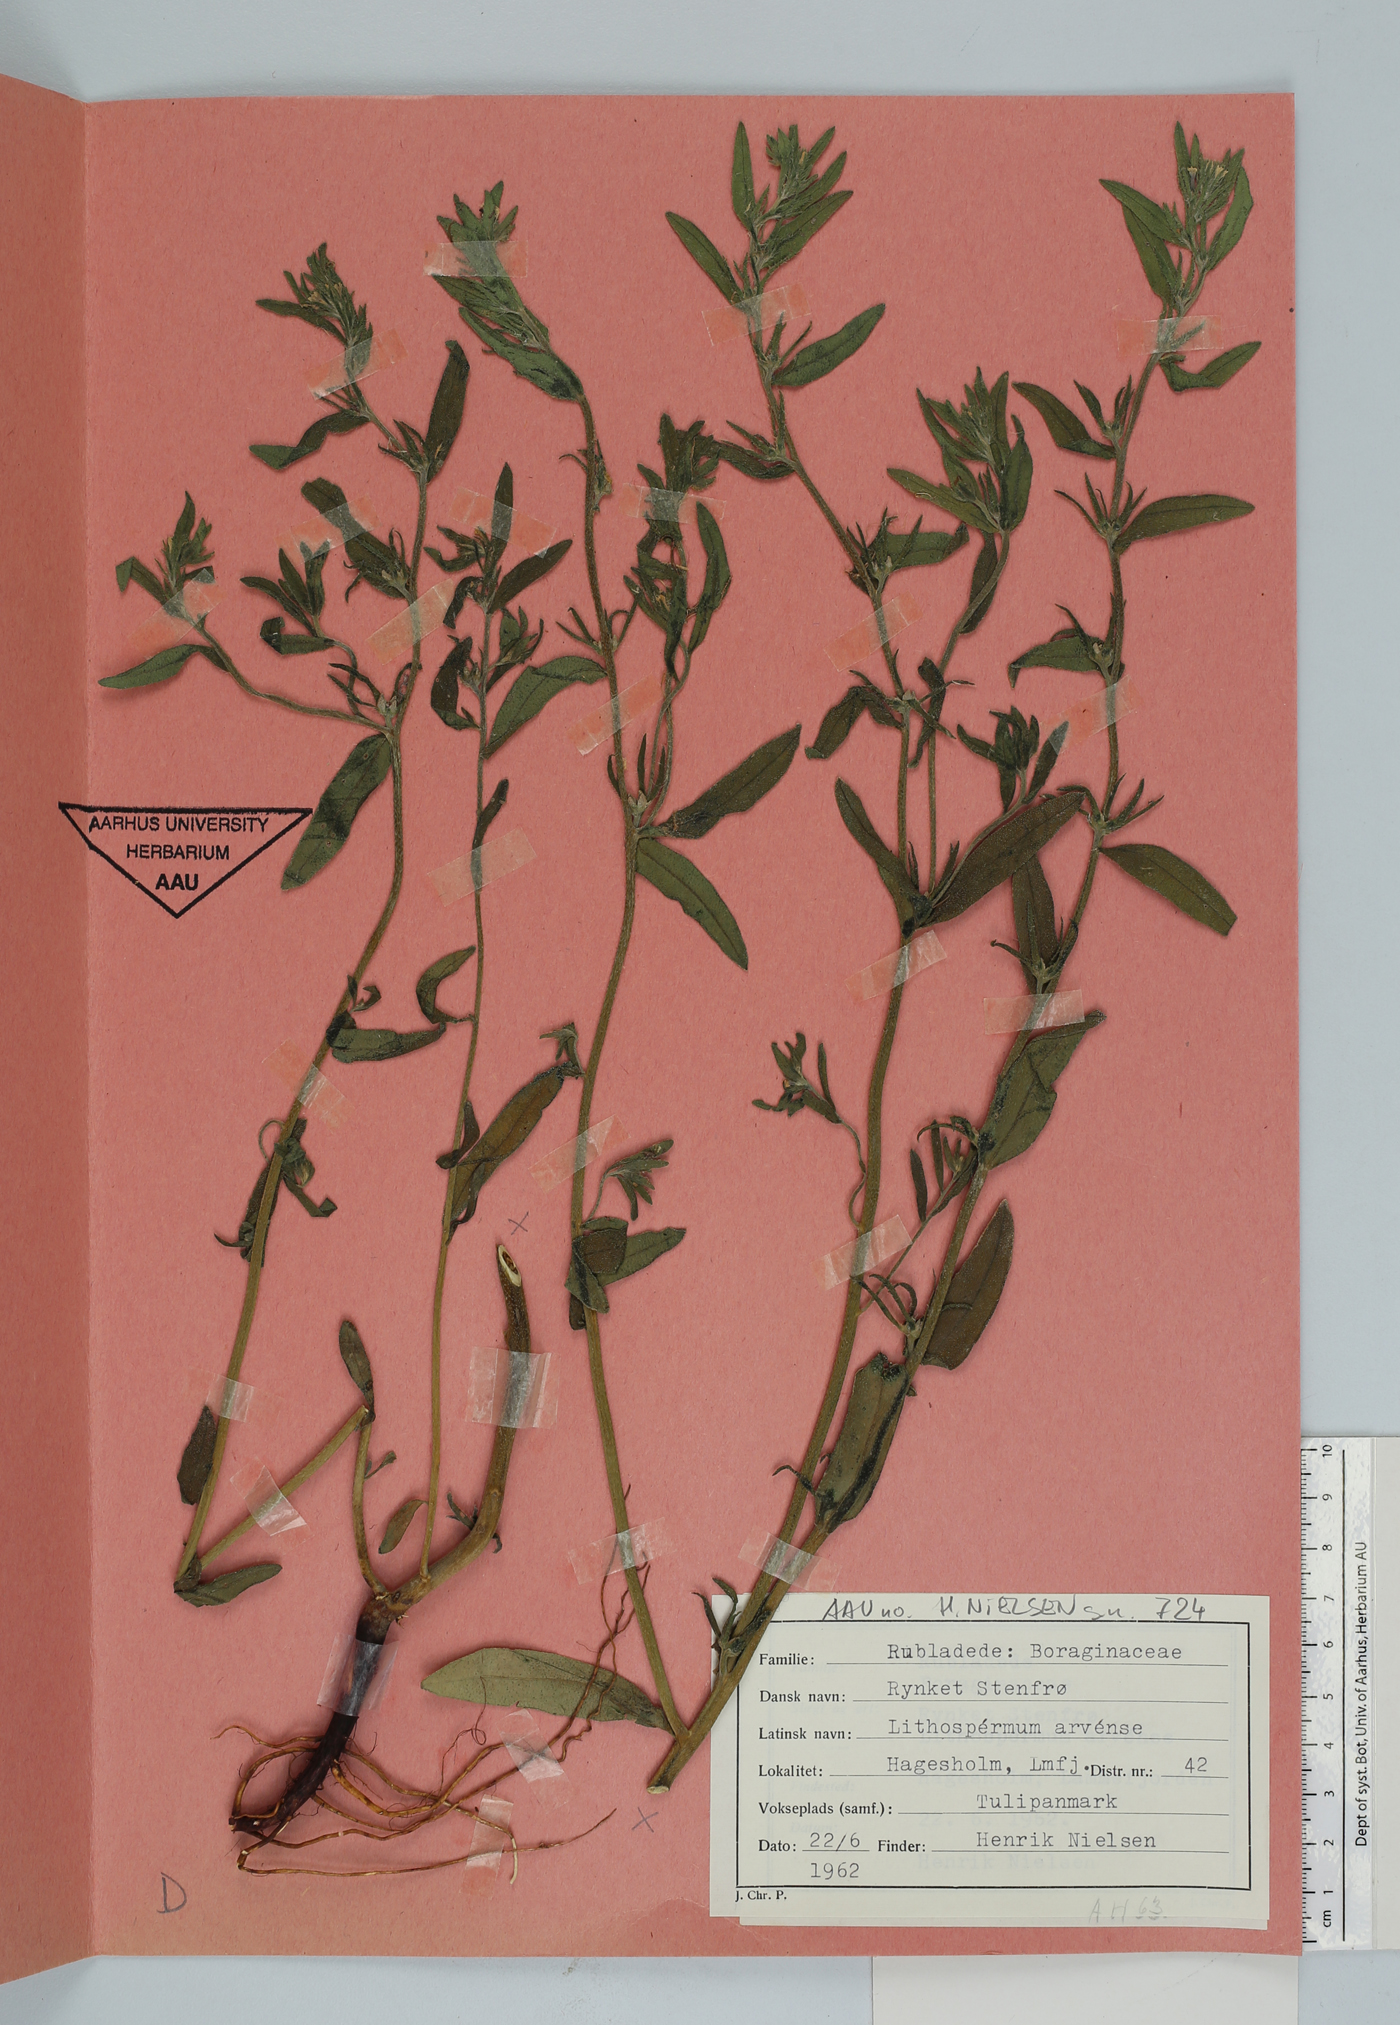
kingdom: Plantae
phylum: Tracheophyta
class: Magnoliopsida
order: Boraginales
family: Boraginaceae
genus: Buglossoides
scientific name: Buglossoides arvensis
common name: Corn gromwell
